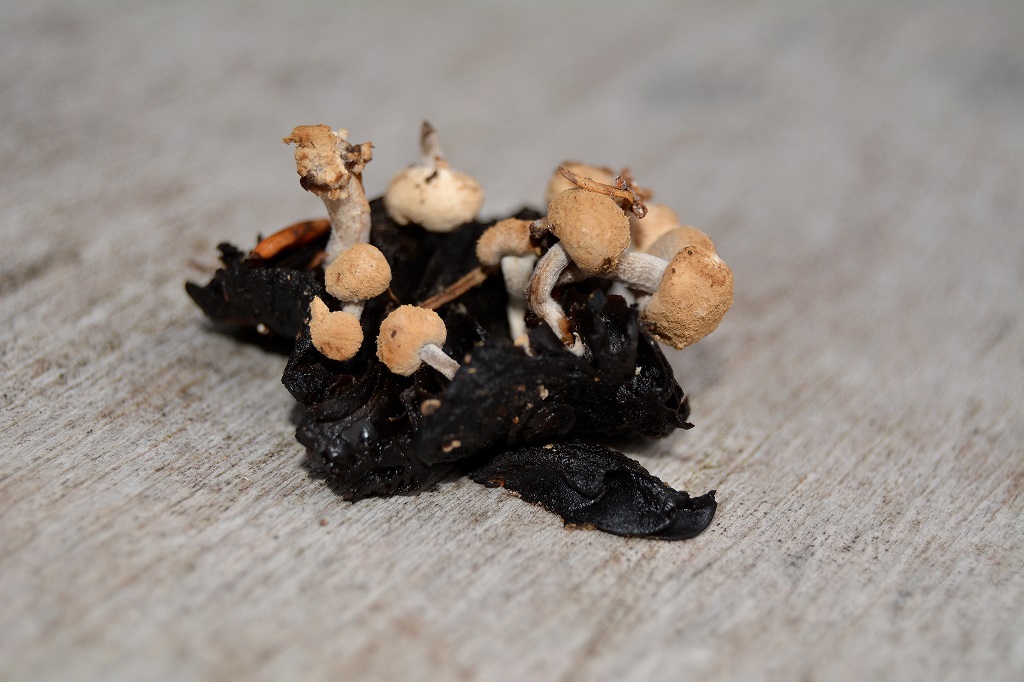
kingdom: Fungi
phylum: Basidiomycota
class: Agaricomycetes
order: Agaricales
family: Lyophyllaceae
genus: Asterophora
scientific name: Asterophora lycoperdoides
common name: brunpudret snyltehat
